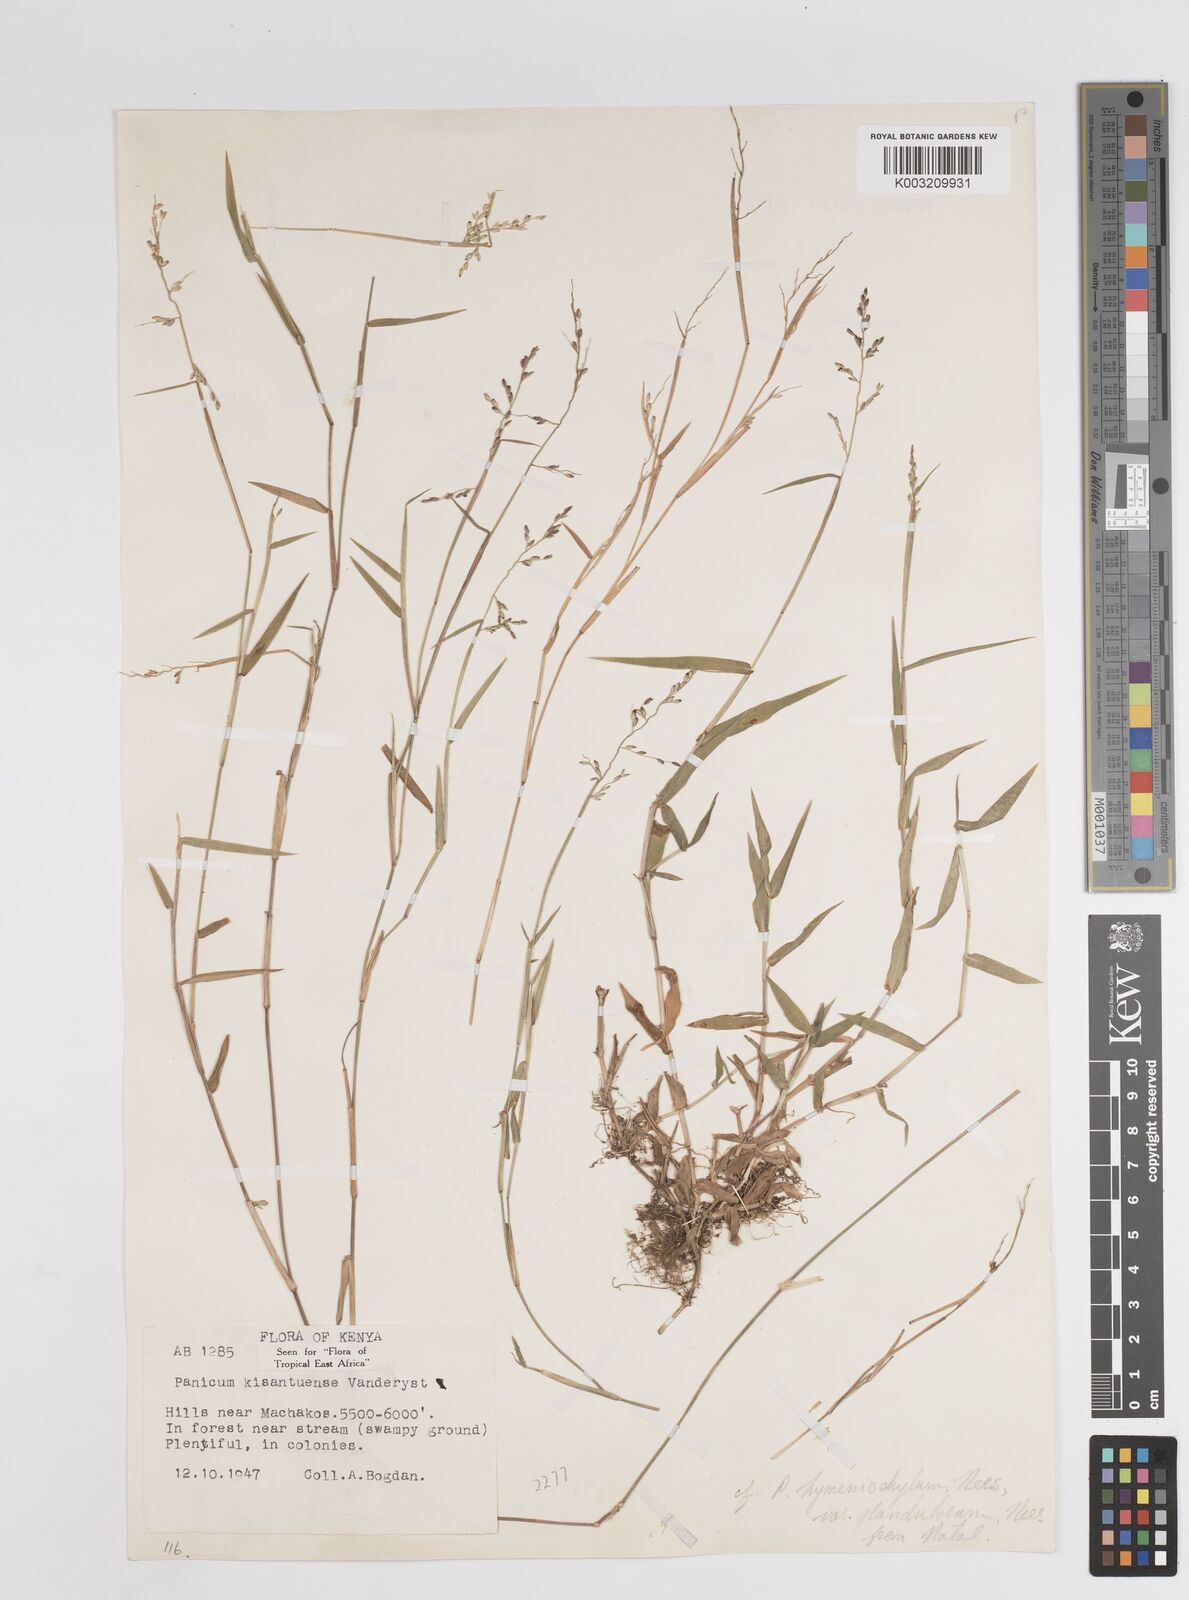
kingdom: Plantae
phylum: Tracheophyta
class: Liliopsida
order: Poales
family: Poaceae
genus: Adenochloa
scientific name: Adenochloa hymeniochila
